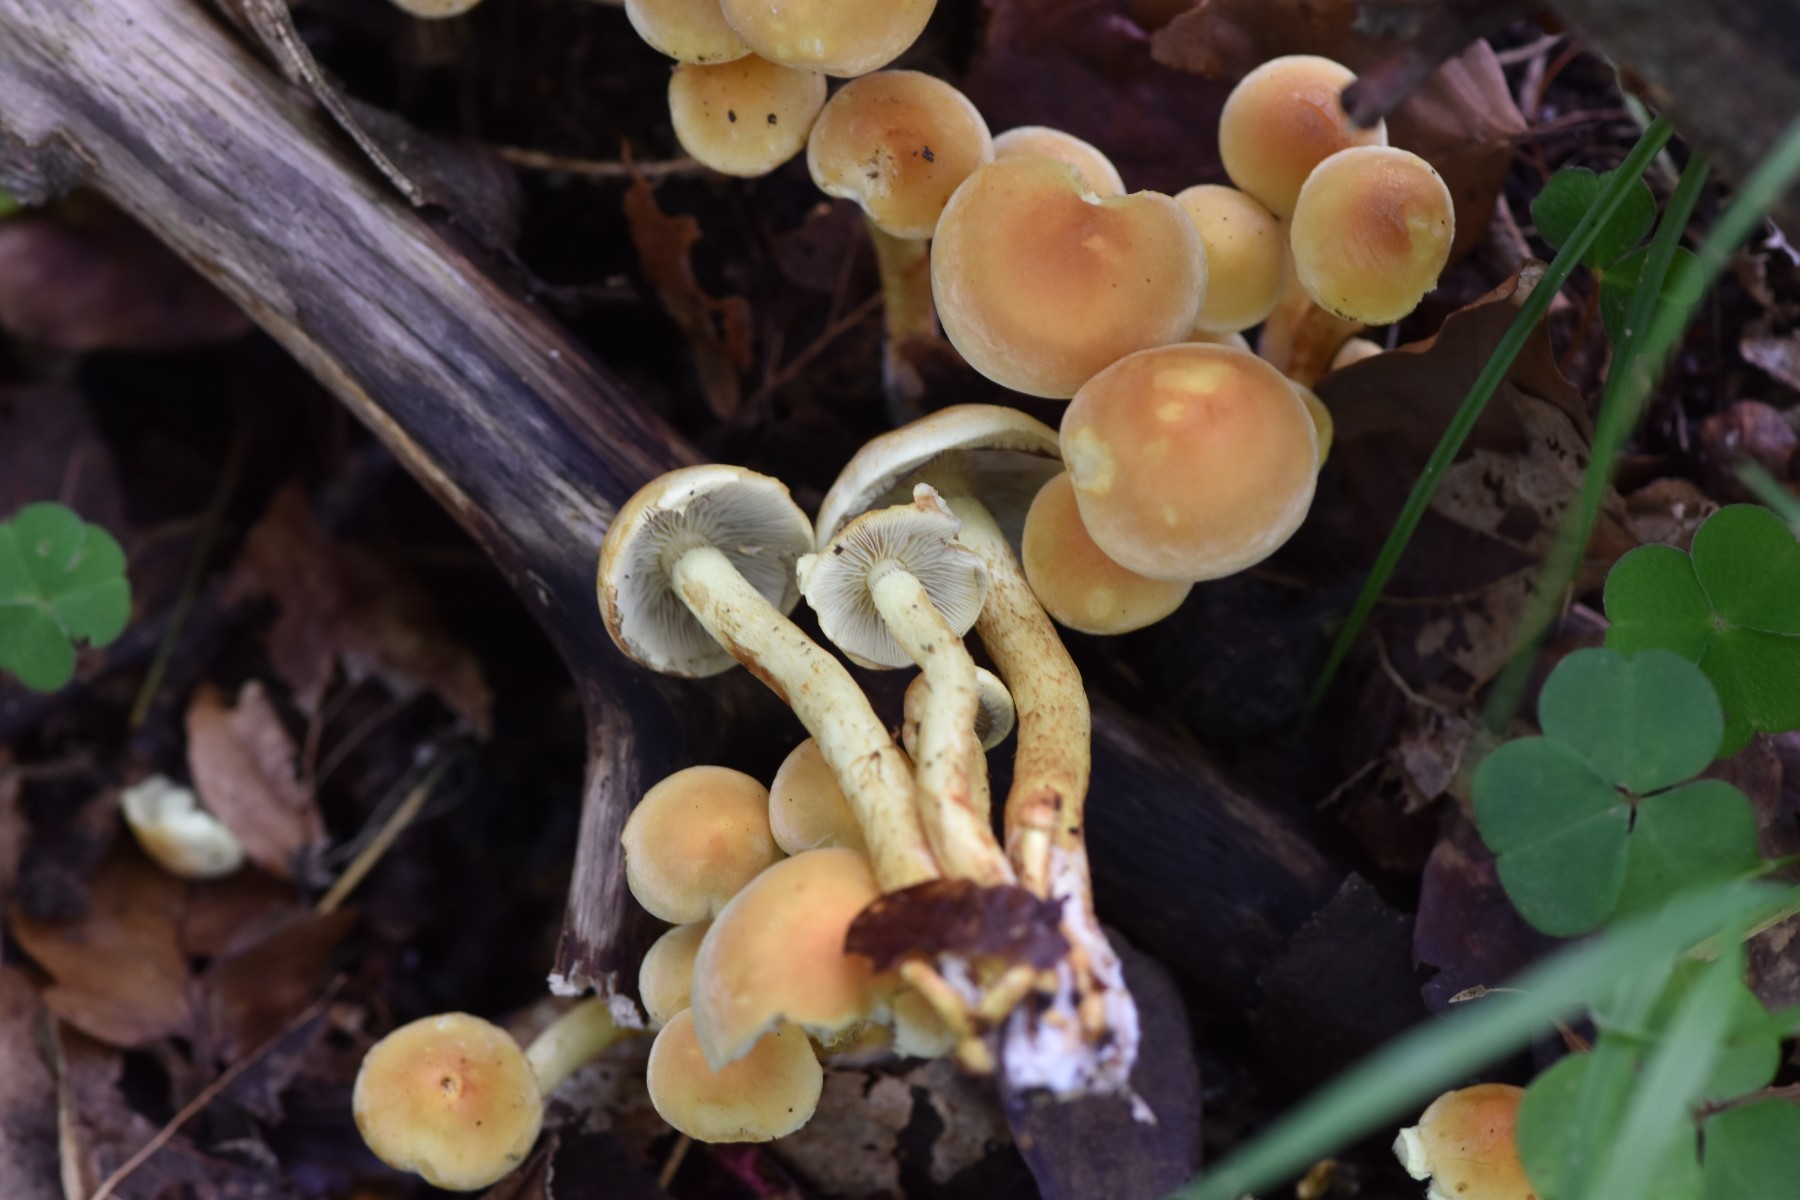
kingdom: Fungi
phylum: Basidiomycota
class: Agaricomycetes
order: Agaricales
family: Strophariaceae
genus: Hypholoma
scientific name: Hypholoma fasciculare
